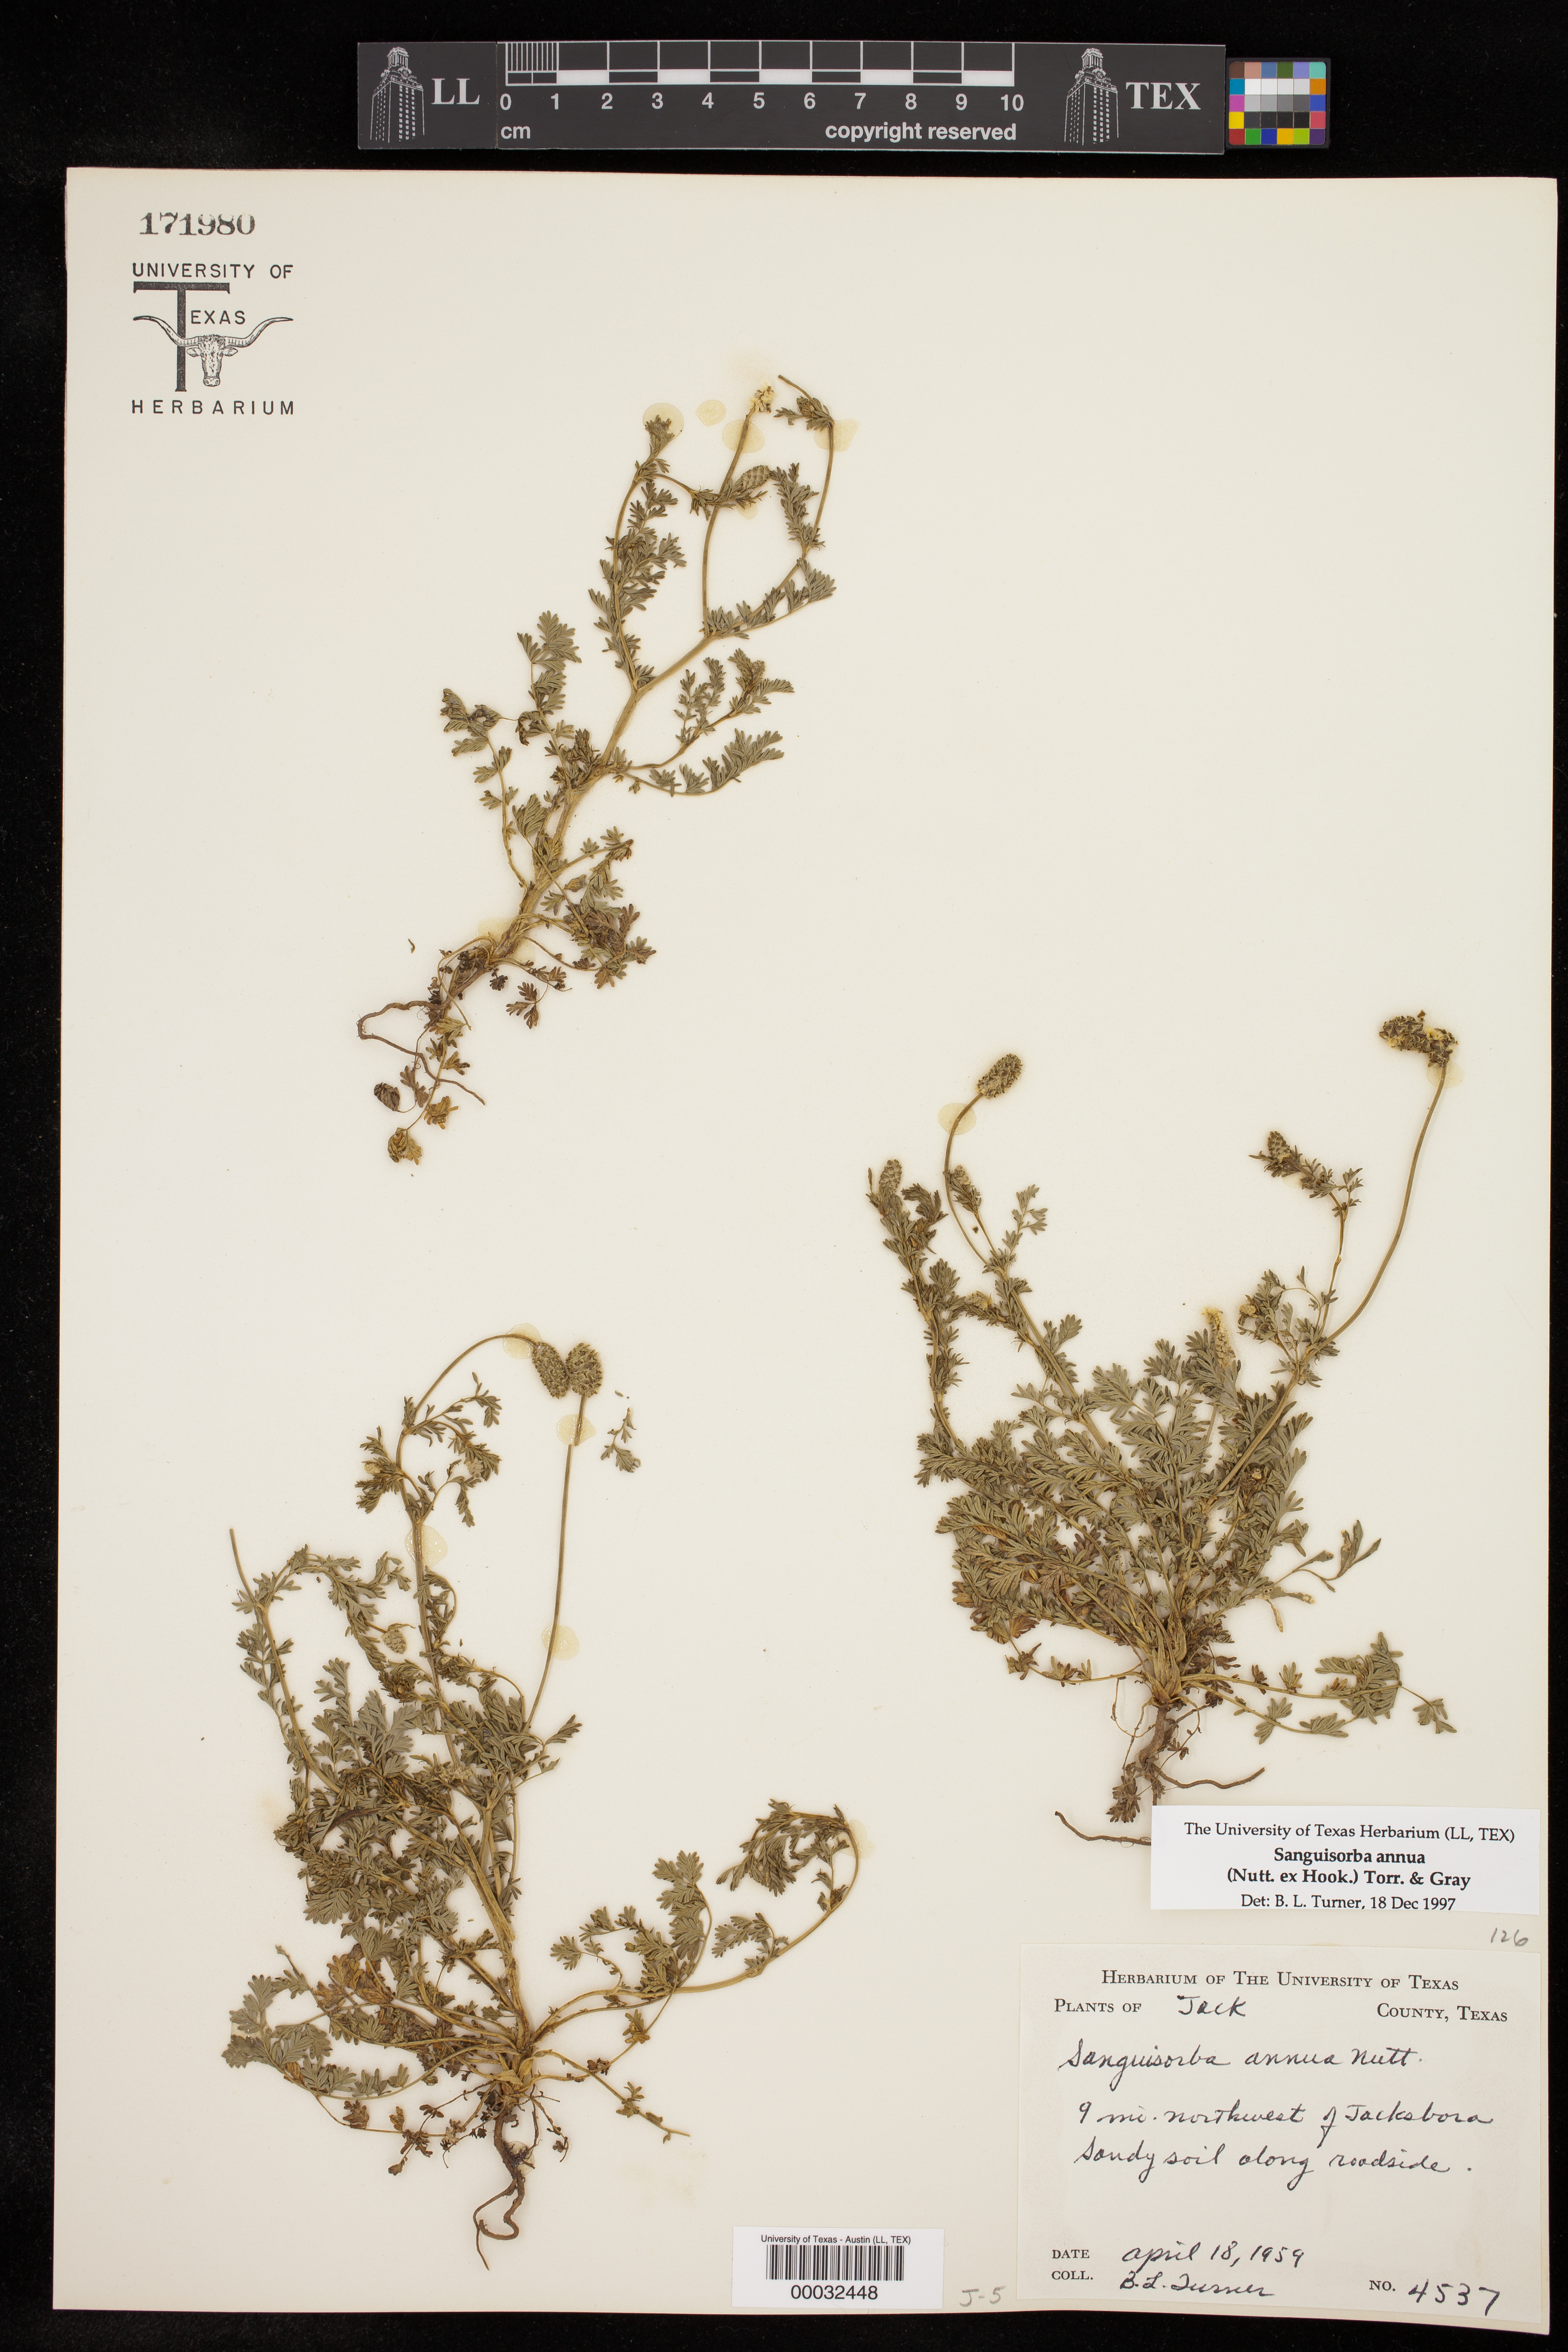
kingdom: Plantae
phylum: Tracheophyta
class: Magnoliopsida
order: Rosales
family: Rosaceae
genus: Poteridium
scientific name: Poteridium annuum
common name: Annual burnet
